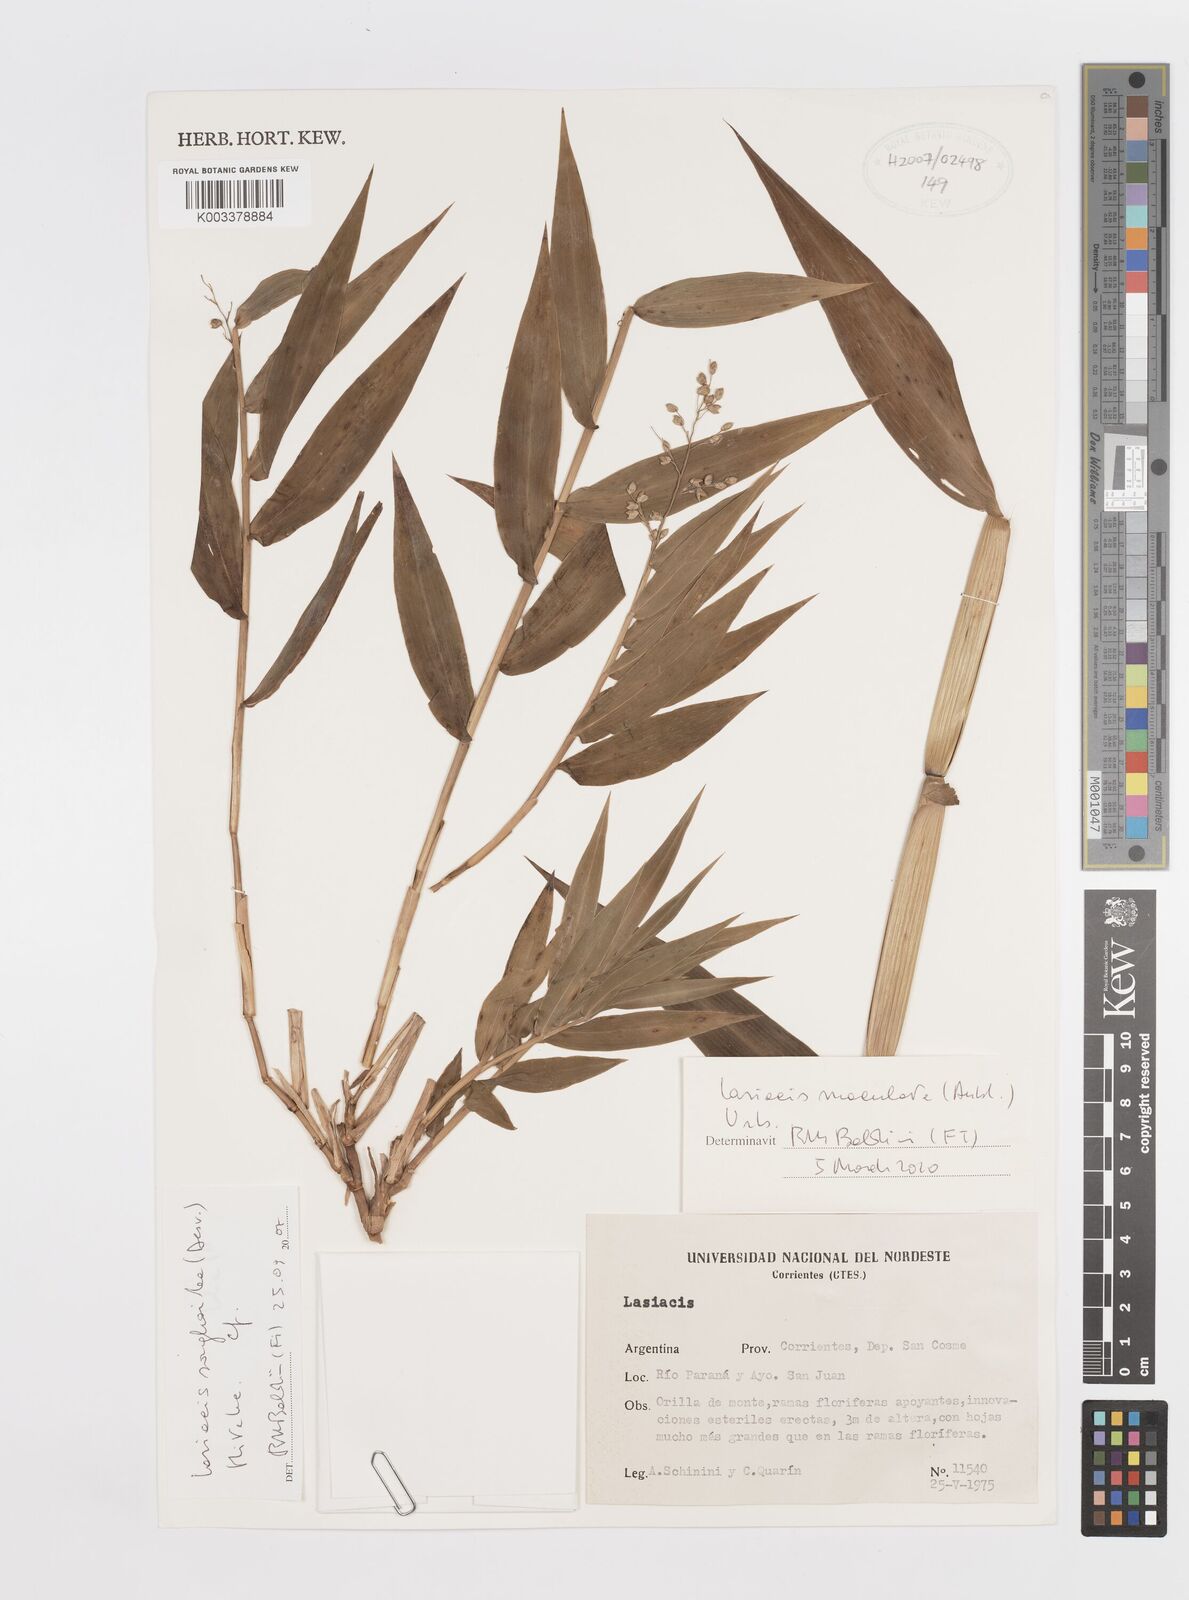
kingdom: Plantae
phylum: Tracheophyta
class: Liliopsida
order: Poales
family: Poaceae
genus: Lasiacis
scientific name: Lasiacis maculata
